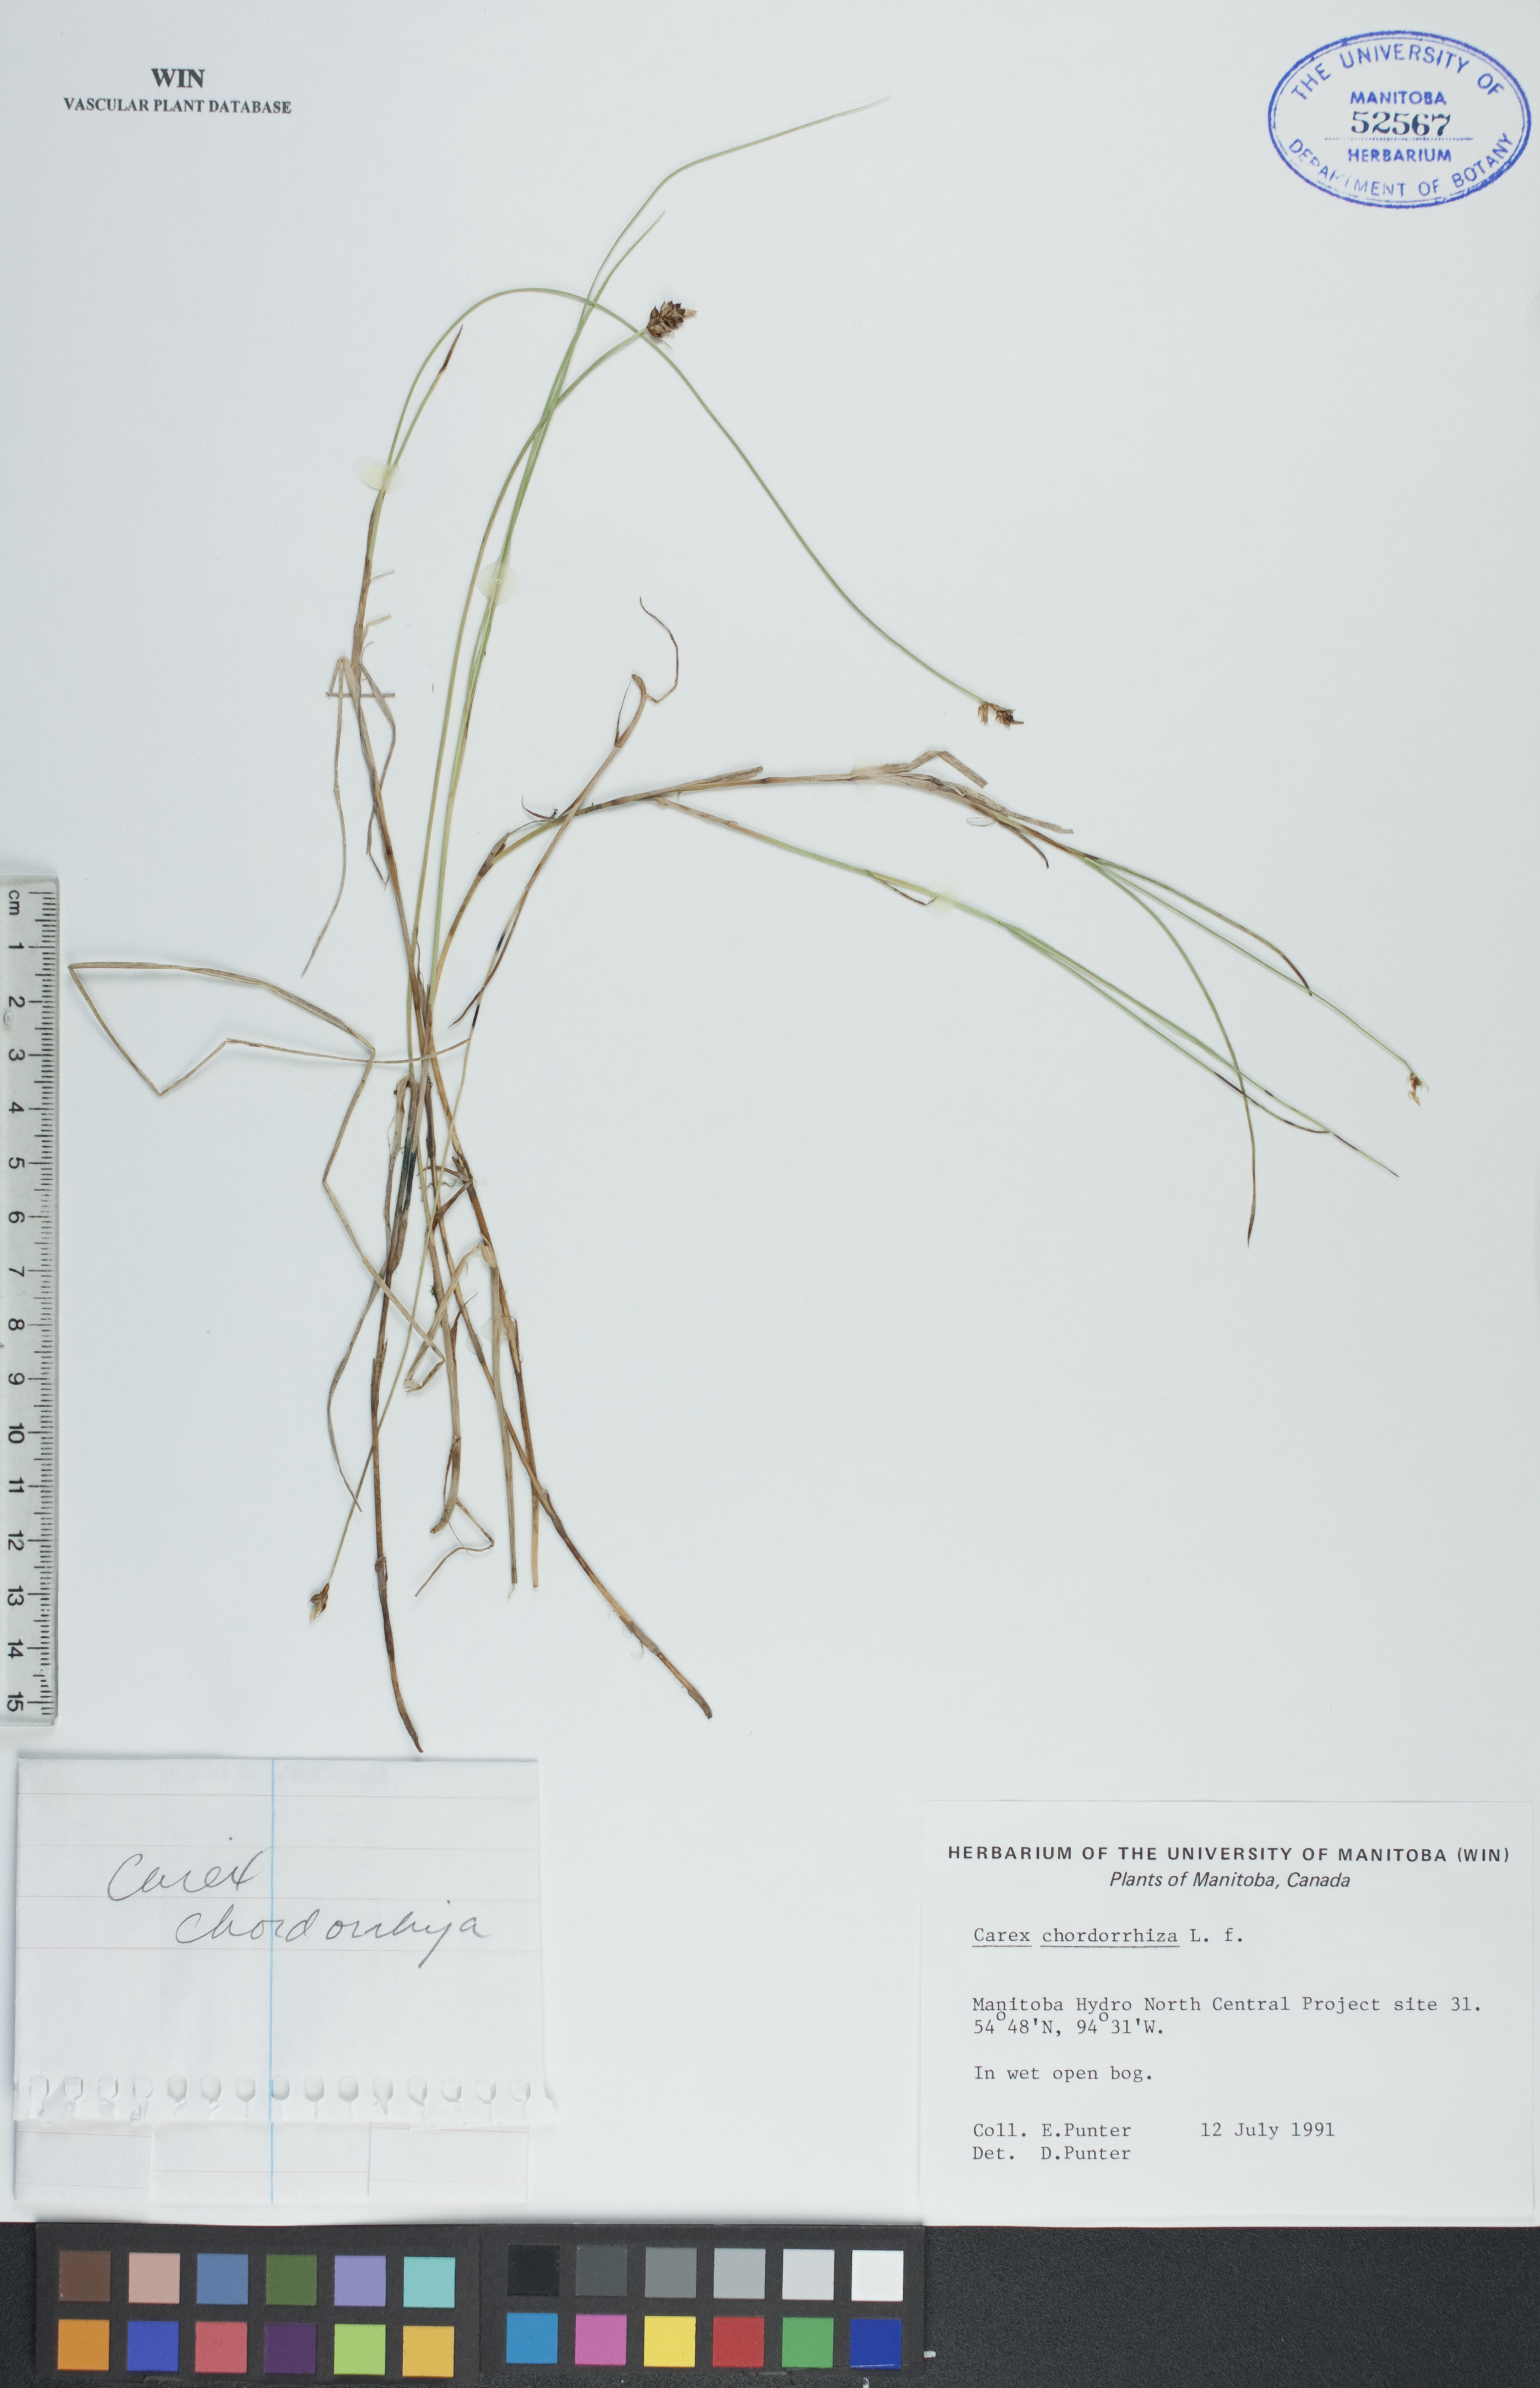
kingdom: Plantae
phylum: Tracheophyta
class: Liliopsida
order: Poales
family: Cyperaceae
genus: Carex
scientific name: Carex chordorrhiza
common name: String sedge
